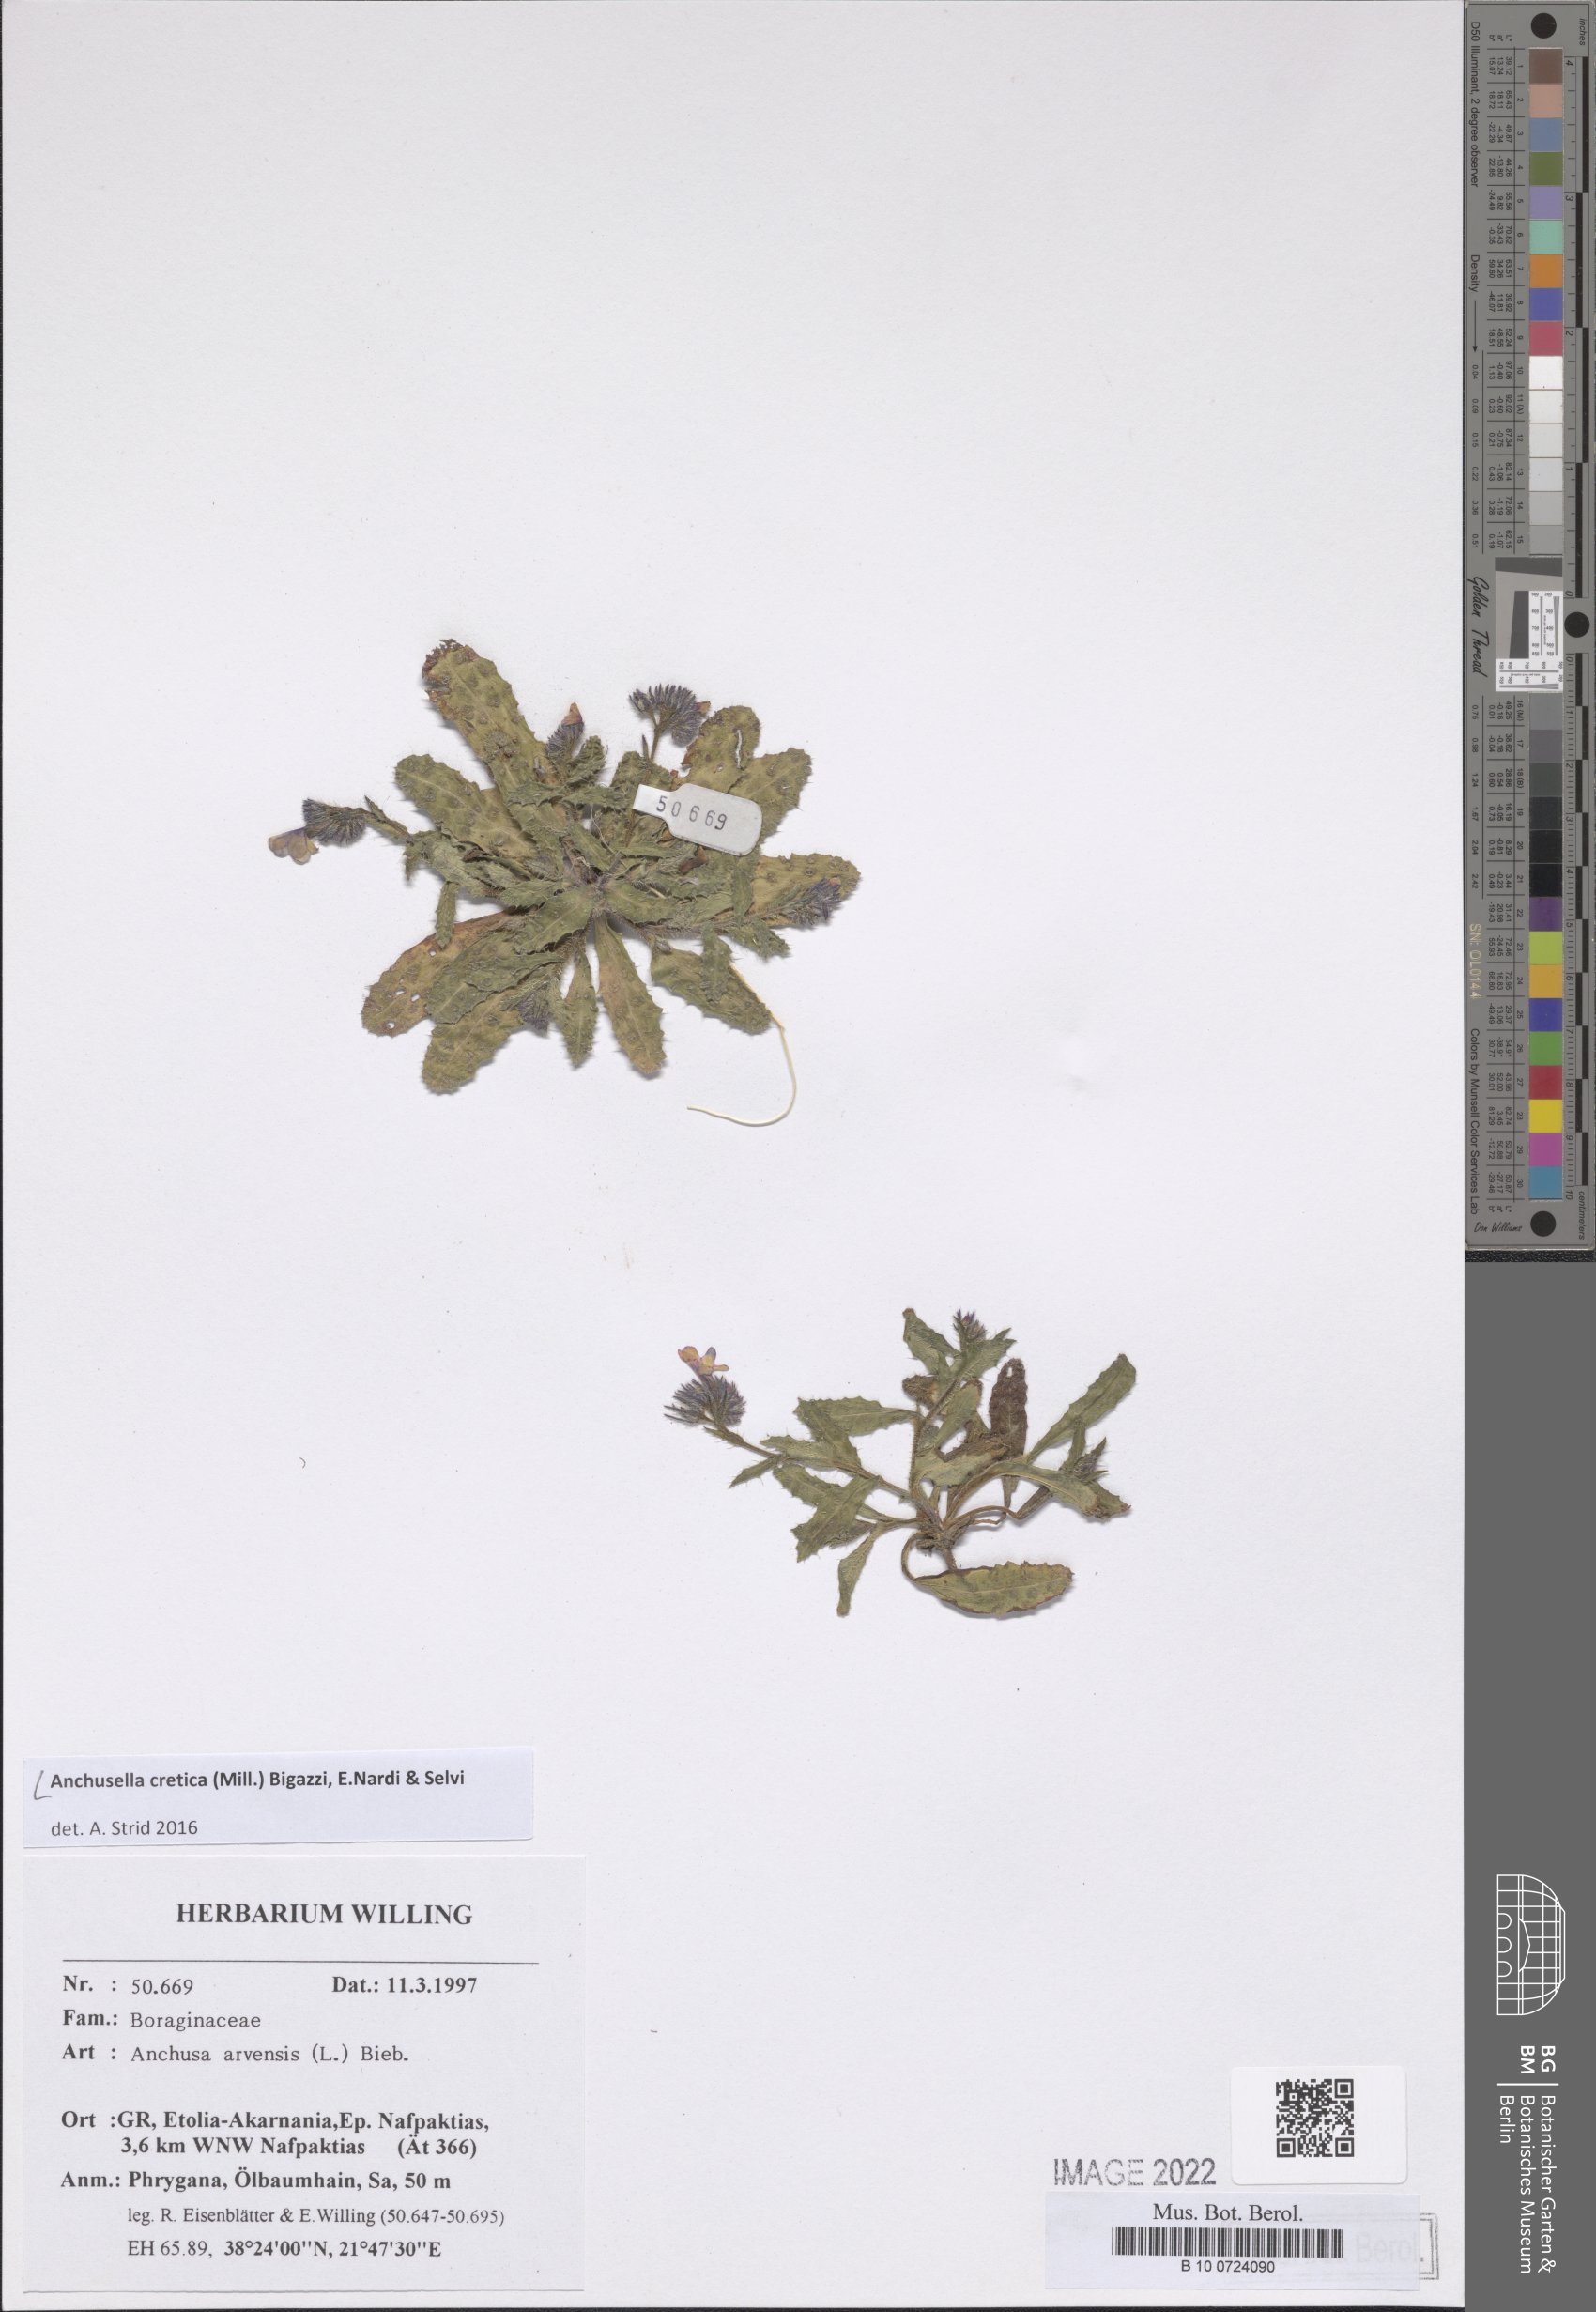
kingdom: Plantae
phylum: Tracheophyta
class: Magnoliopsida
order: Boraginales
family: Boraginaceae
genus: Anchusella
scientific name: Anchusella cretica
